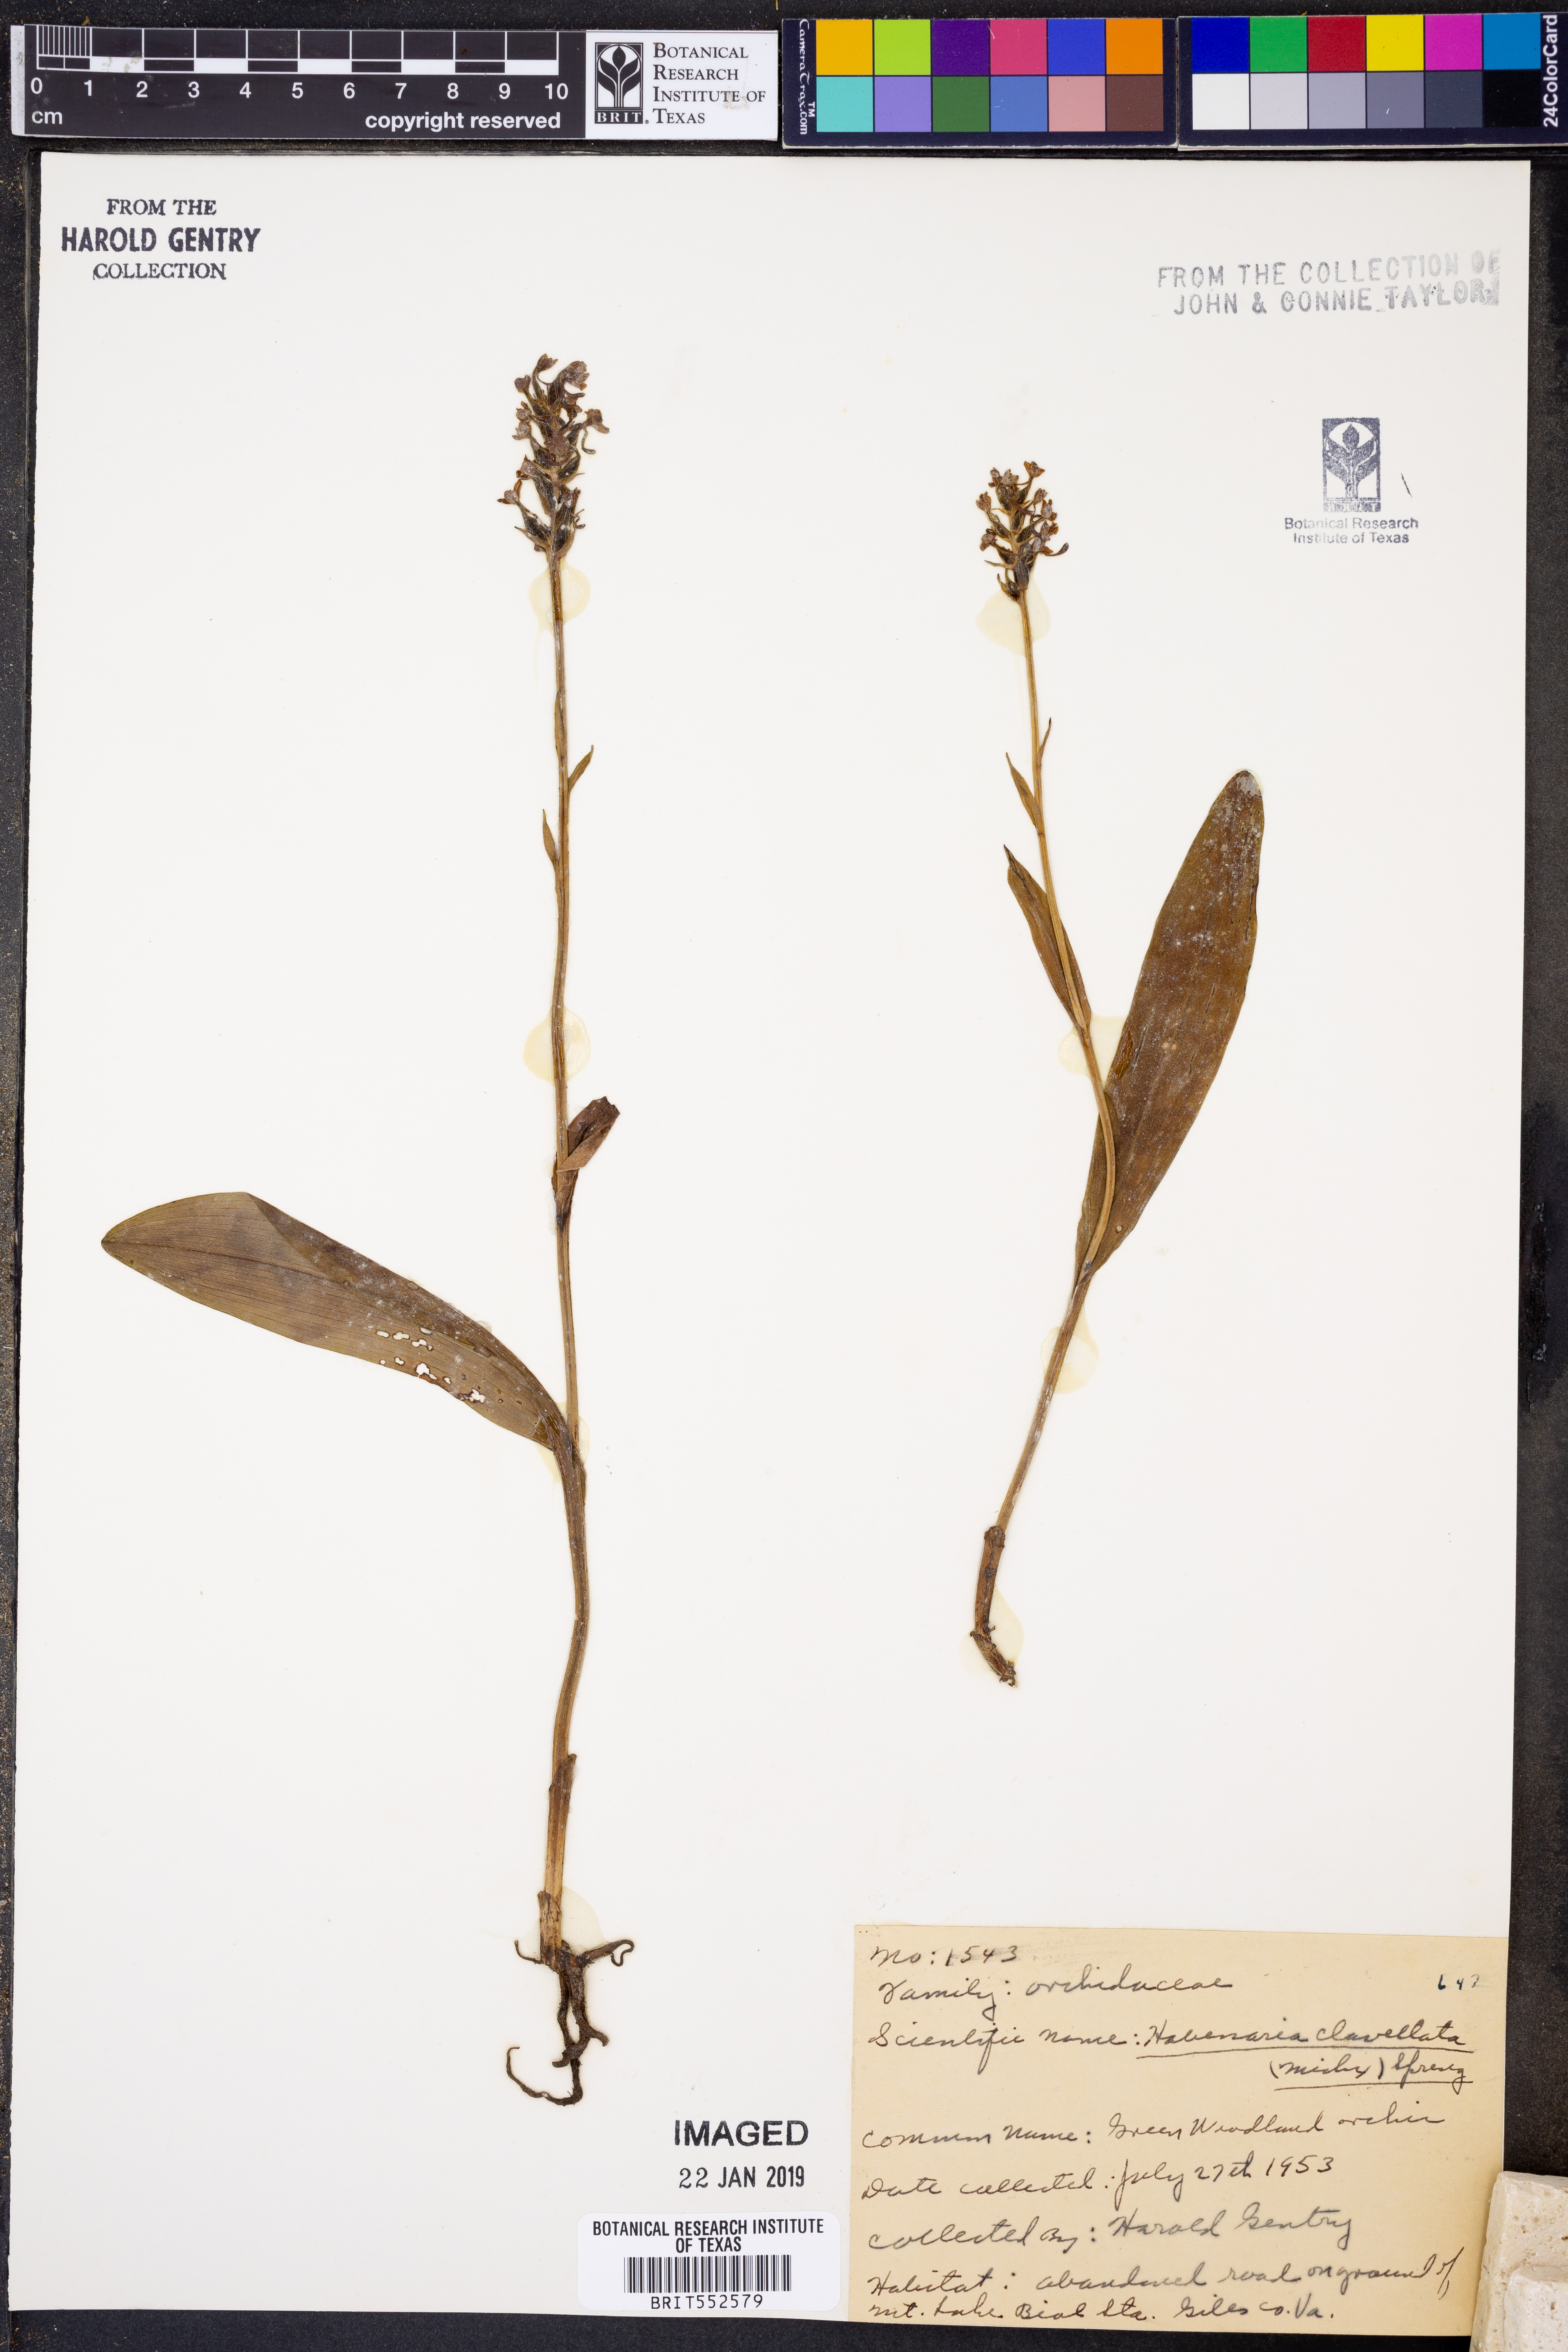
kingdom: Plantae
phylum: Tracheophyta
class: Liliopsida
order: Asparagales
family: Orchidaceae
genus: Platanthera
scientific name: Platanthera clavellata
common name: Club-spur orchid
